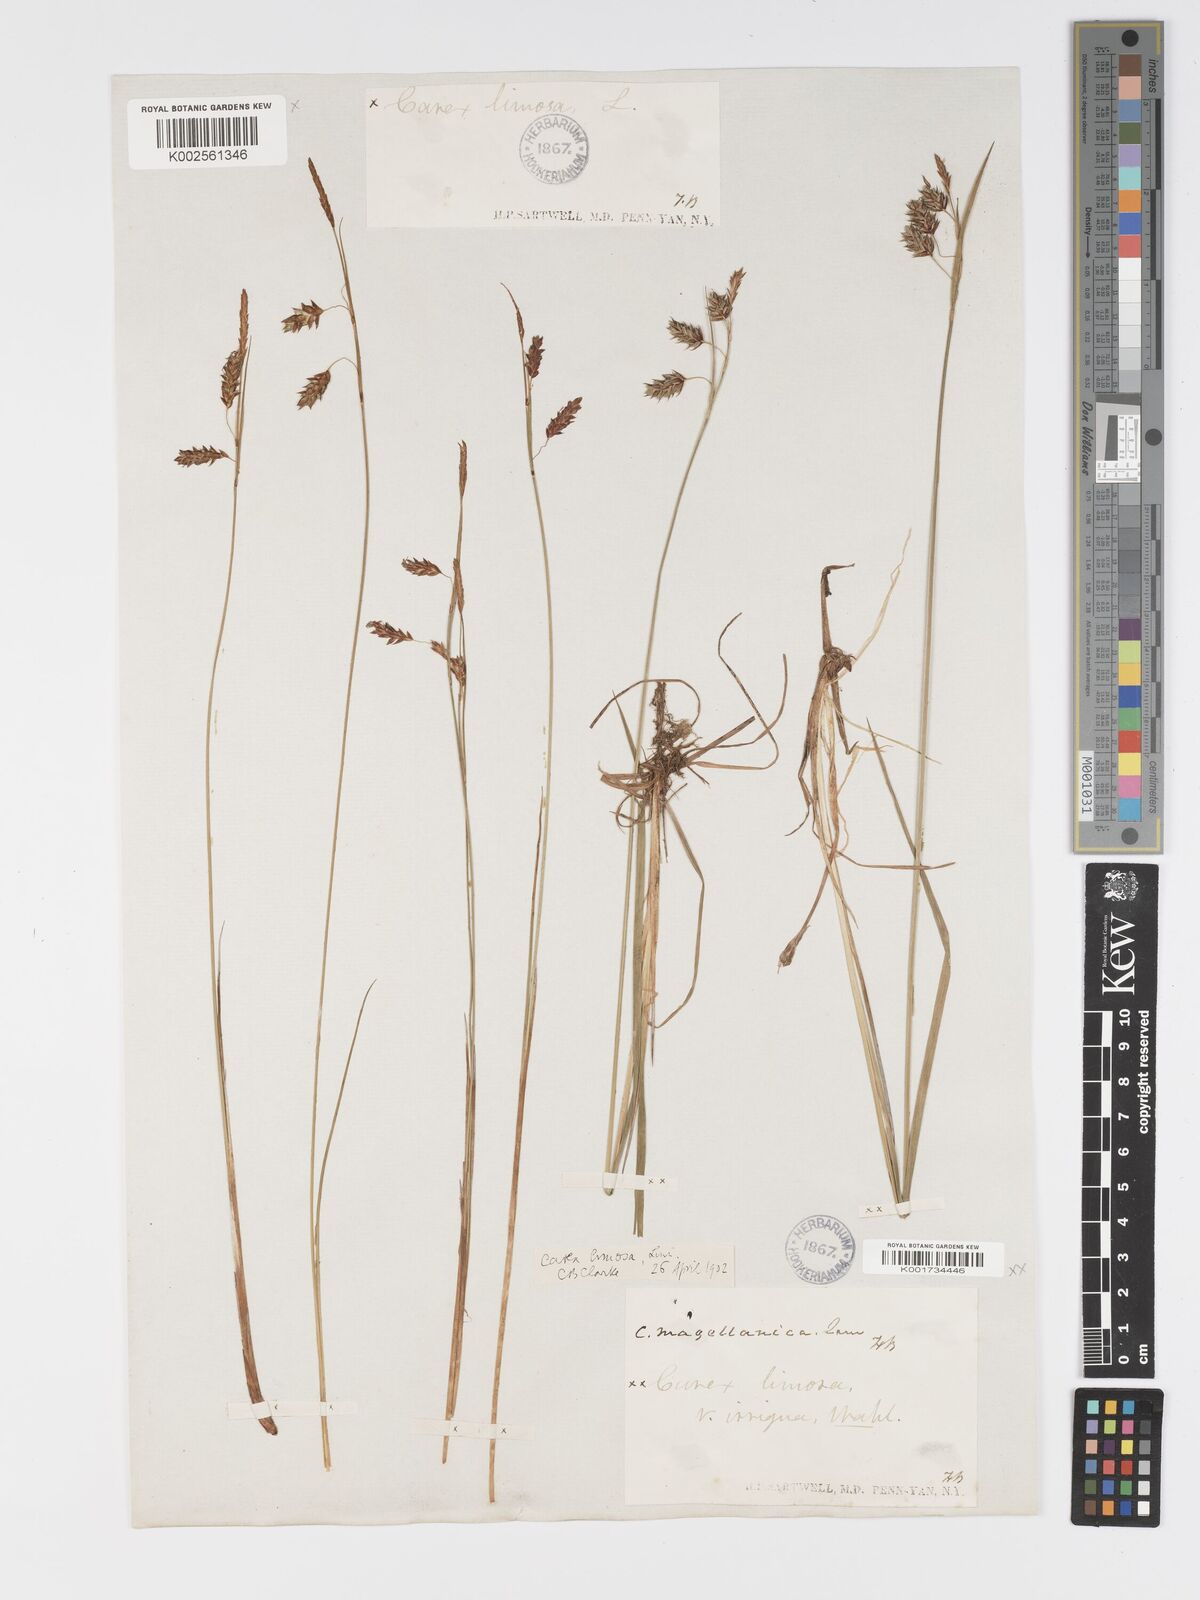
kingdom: Plantae
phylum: Tracheophyta
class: Liliopsida
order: Poales
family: Cyperaceae
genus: Carex
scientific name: Carex magellanica
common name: Bog sedge
